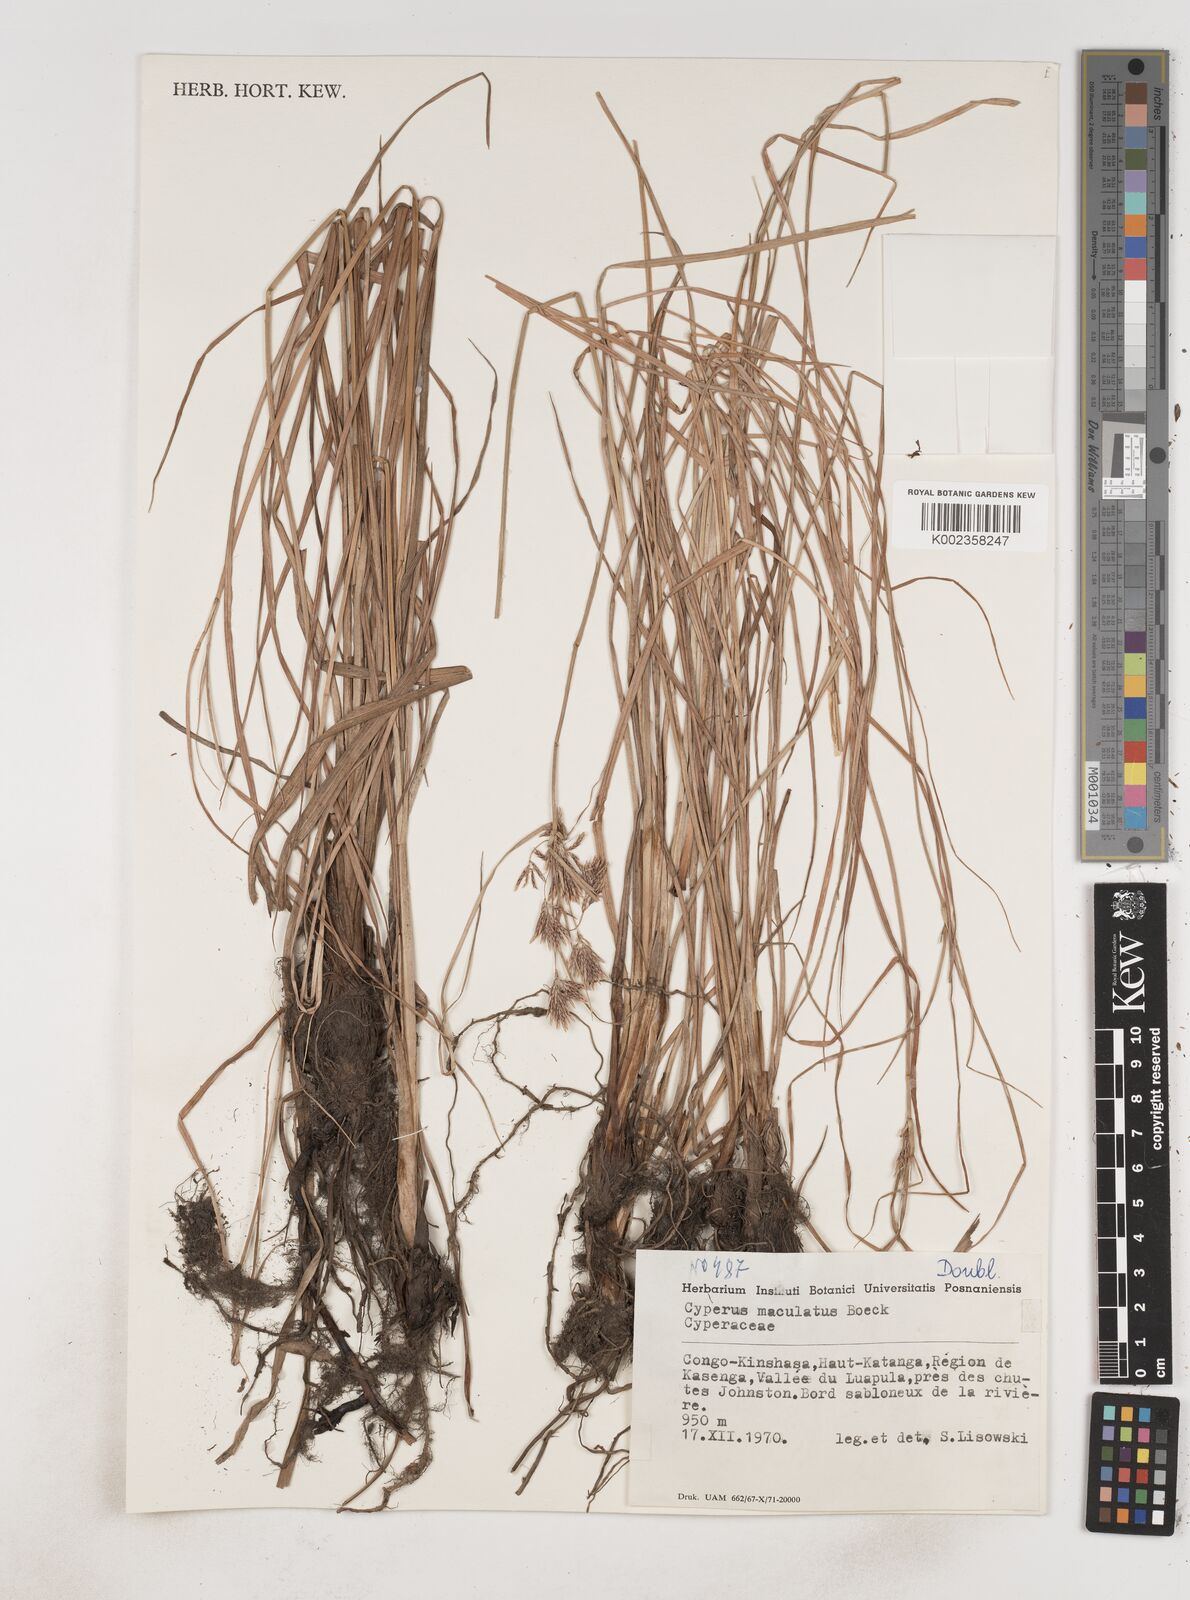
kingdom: Plantae
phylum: Tracheophyta
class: Liliopsida
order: Poales
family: Cyperaceae
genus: Cyperus
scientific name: Cyperus maculatus
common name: Maculated sedge
